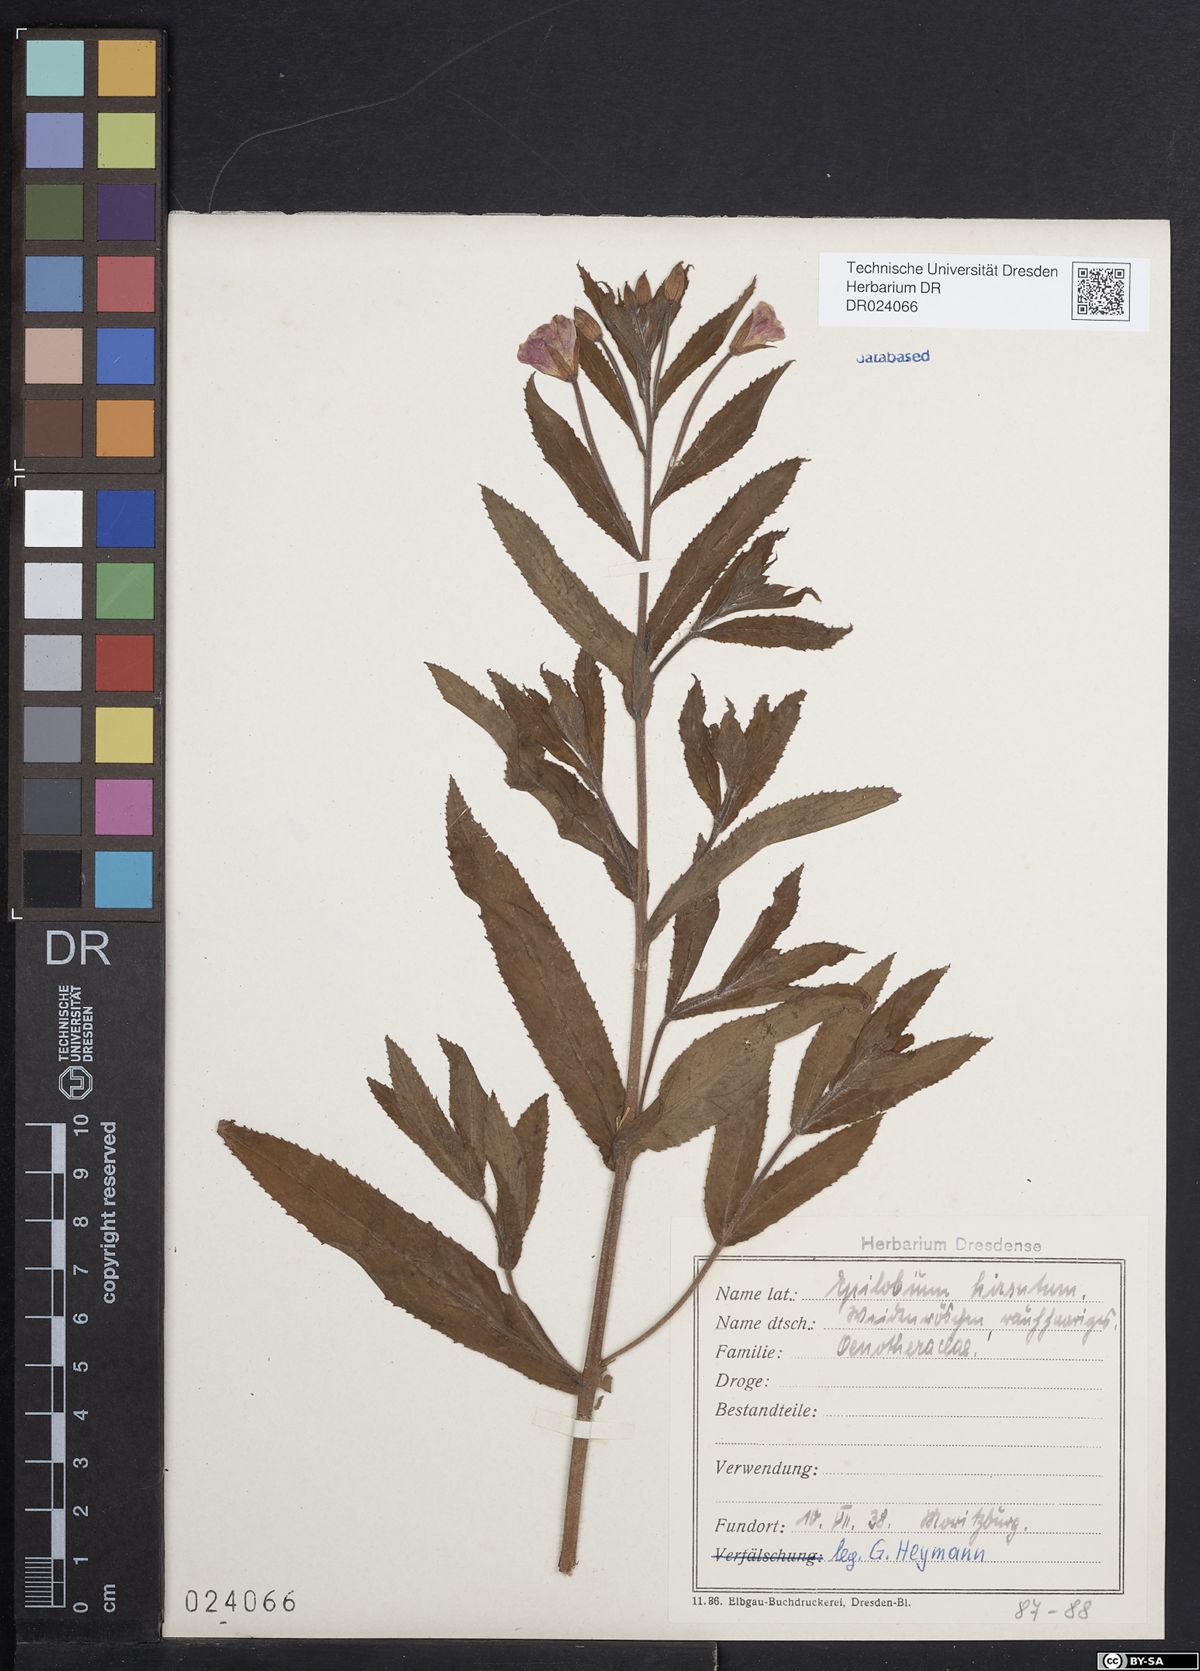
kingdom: Plantae
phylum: Tracheophyta
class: Magnoliopsida
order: Myrtales
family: Onagraceae
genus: Epilobium
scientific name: Epilobium hirsutum
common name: Great willowherb
